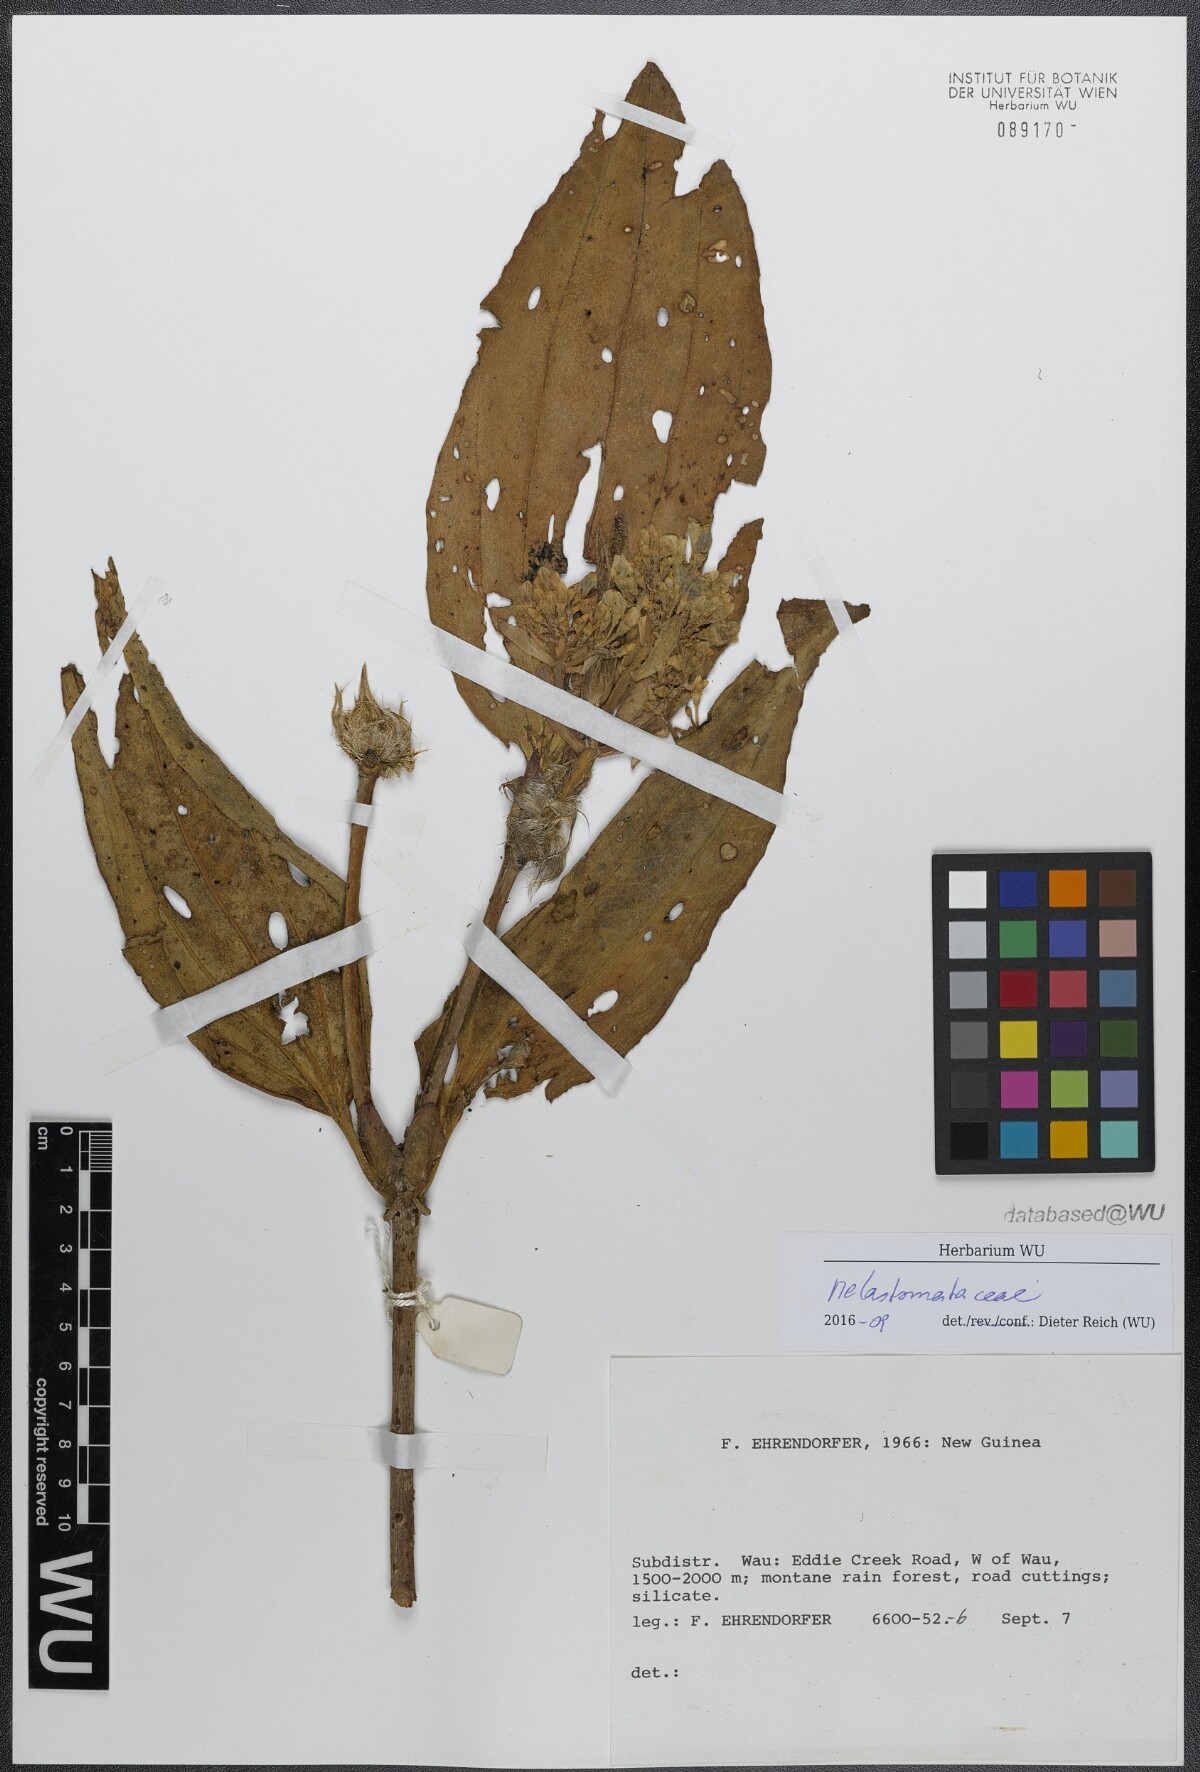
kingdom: Plantae
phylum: Tracheophyta
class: Magnoliopsida
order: Myrtales
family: Melastomataceae
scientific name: Melastomataceae
